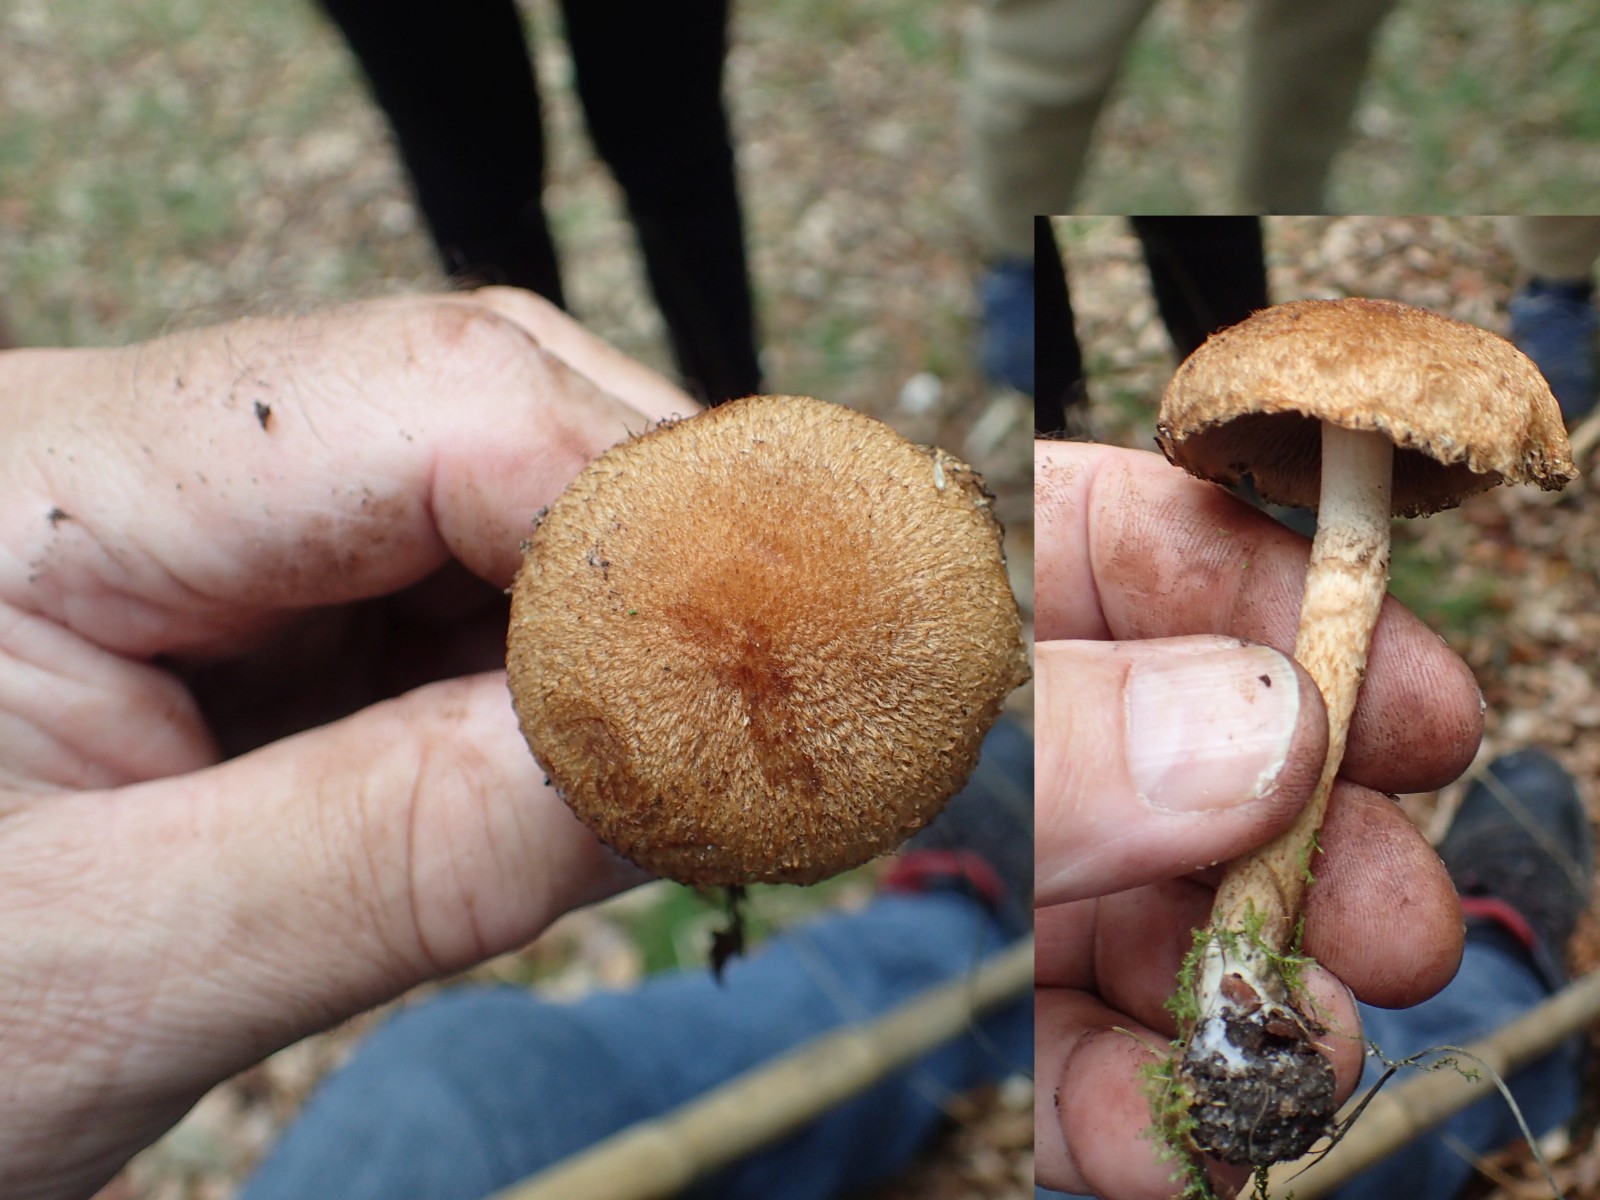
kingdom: Fungi
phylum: Basidiomycota
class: Agaricomycetes
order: Agaricales
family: Psathyrellaceae
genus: Lacrymaria
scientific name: Lacrymaria pyrotricha
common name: ildhåret mørkhat
